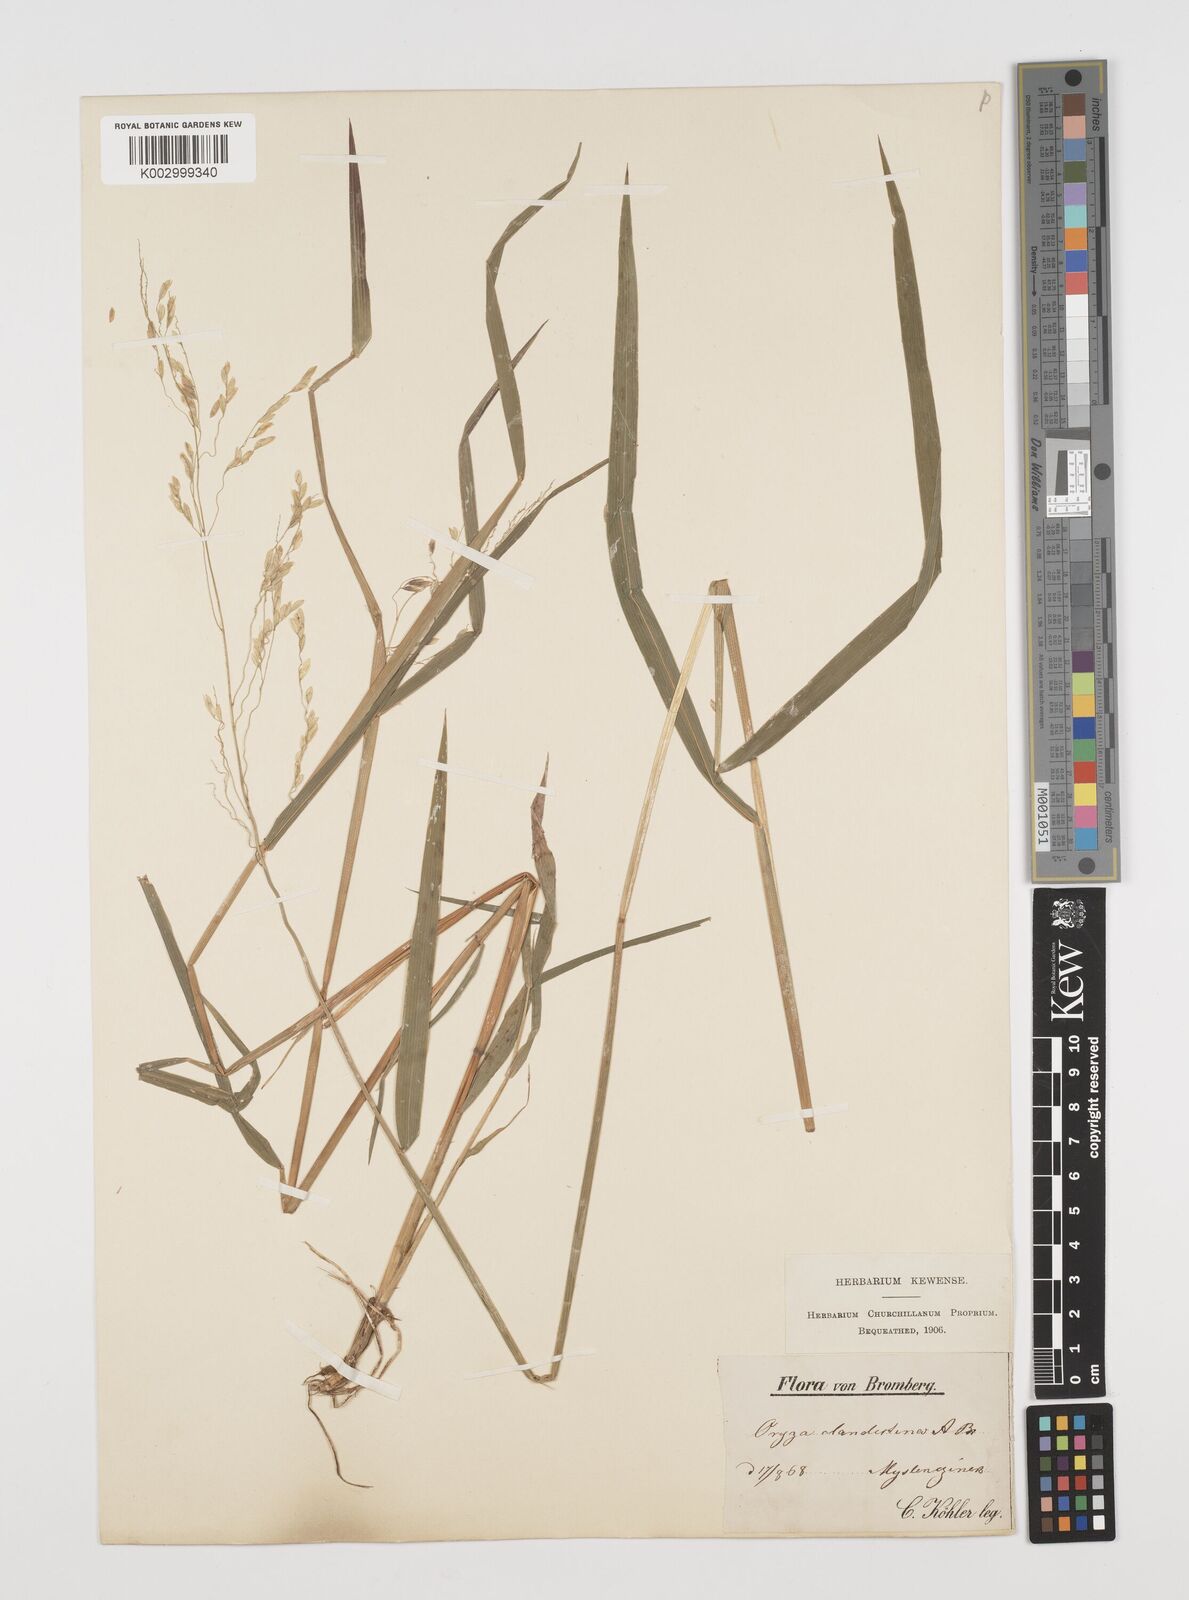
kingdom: Plantae
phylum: Tracheophyta
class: Liliopsida
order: Poales
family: Poaceae
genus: Leersia
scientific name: Leersia oryzoides
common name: Cut-grass
